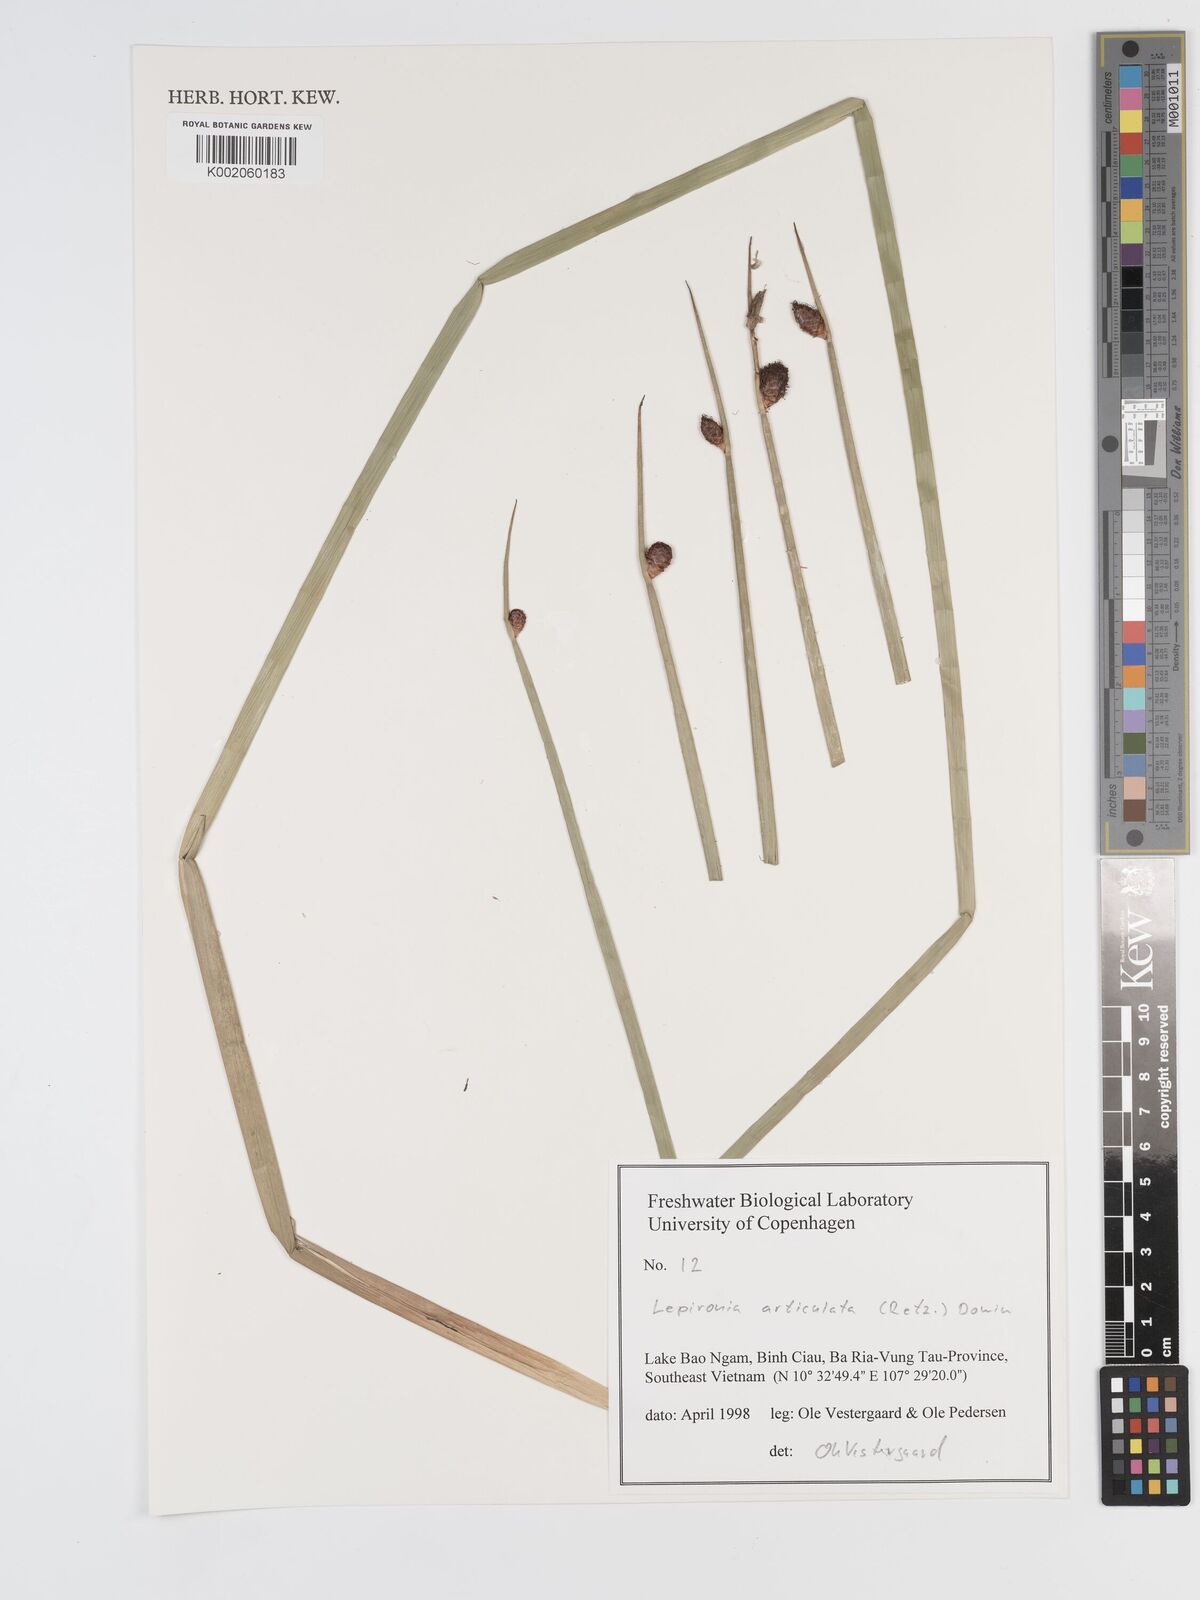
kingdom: Plantae
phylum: Tracheophyta
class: Liliopsida
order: Poales
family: Cyperaceae
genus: Lepironia
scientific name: Lepironia articulata
